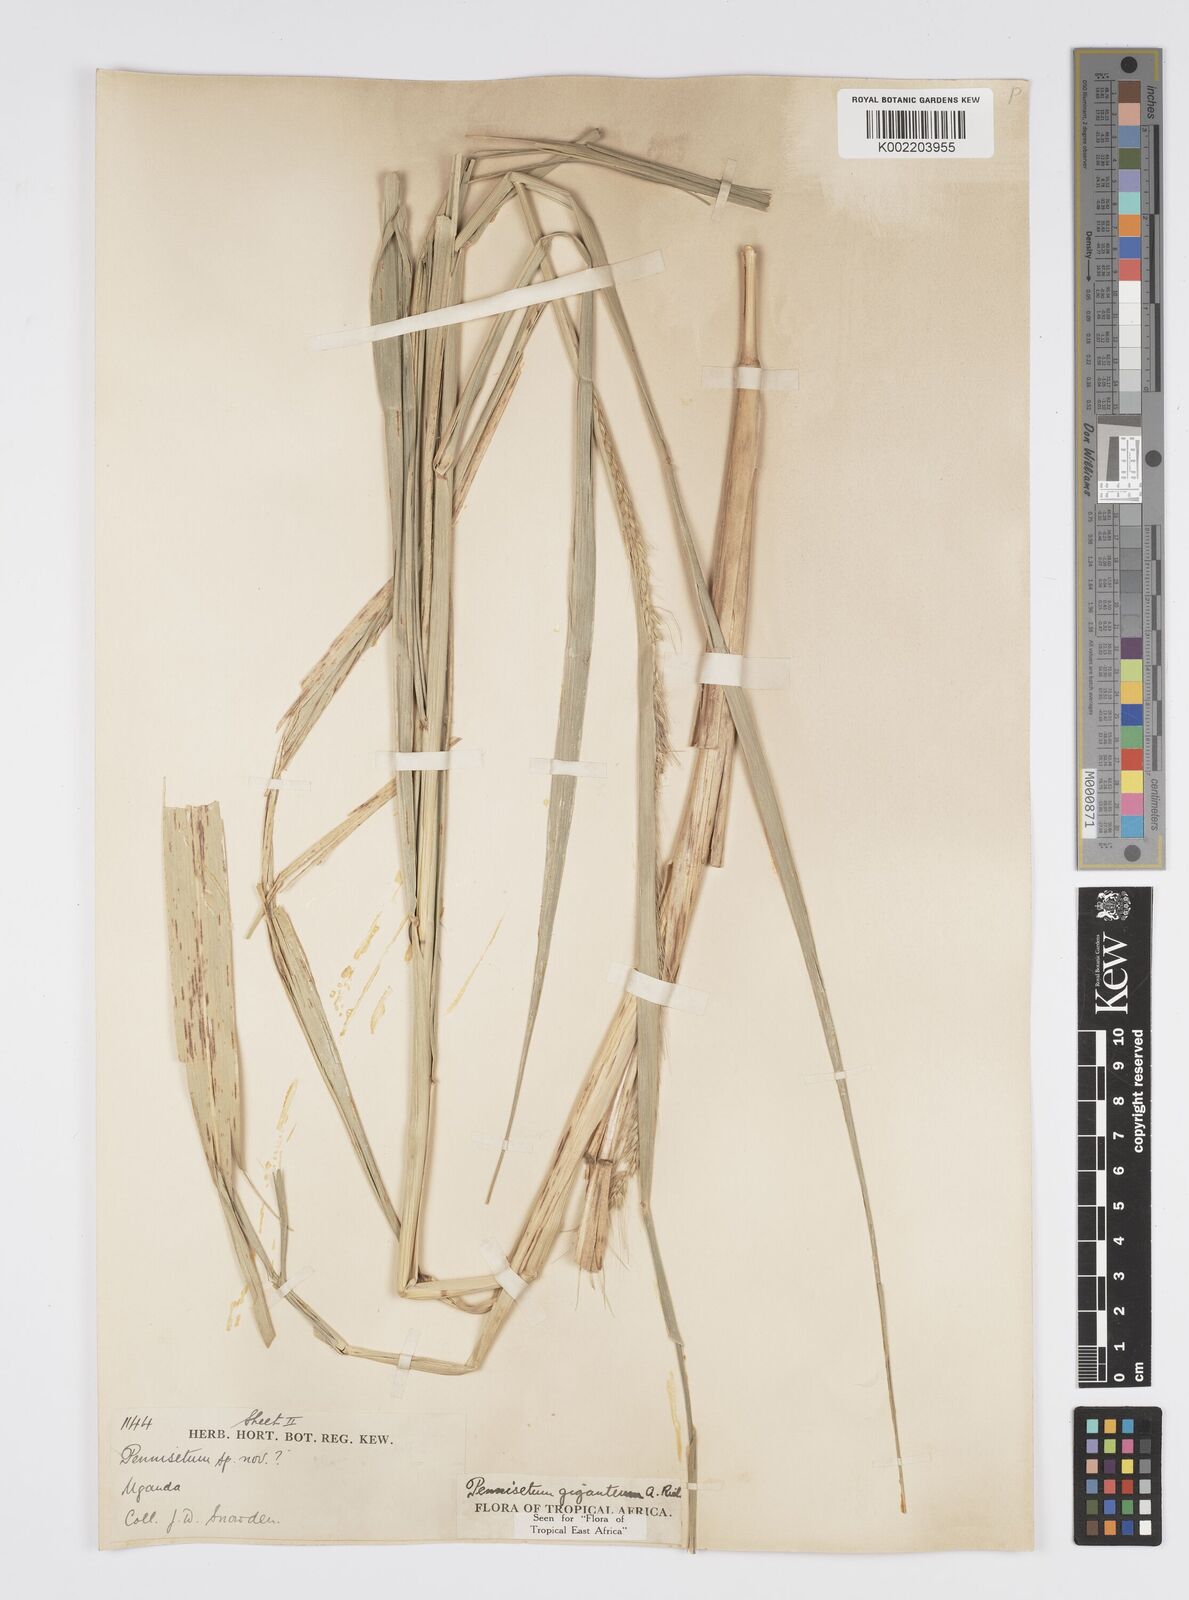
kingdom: Plantae
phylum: Tracheophyta
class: Liliopsida
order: Poales
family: Poaceae
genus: Cenchrus
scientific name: Cenchrus caudatus
